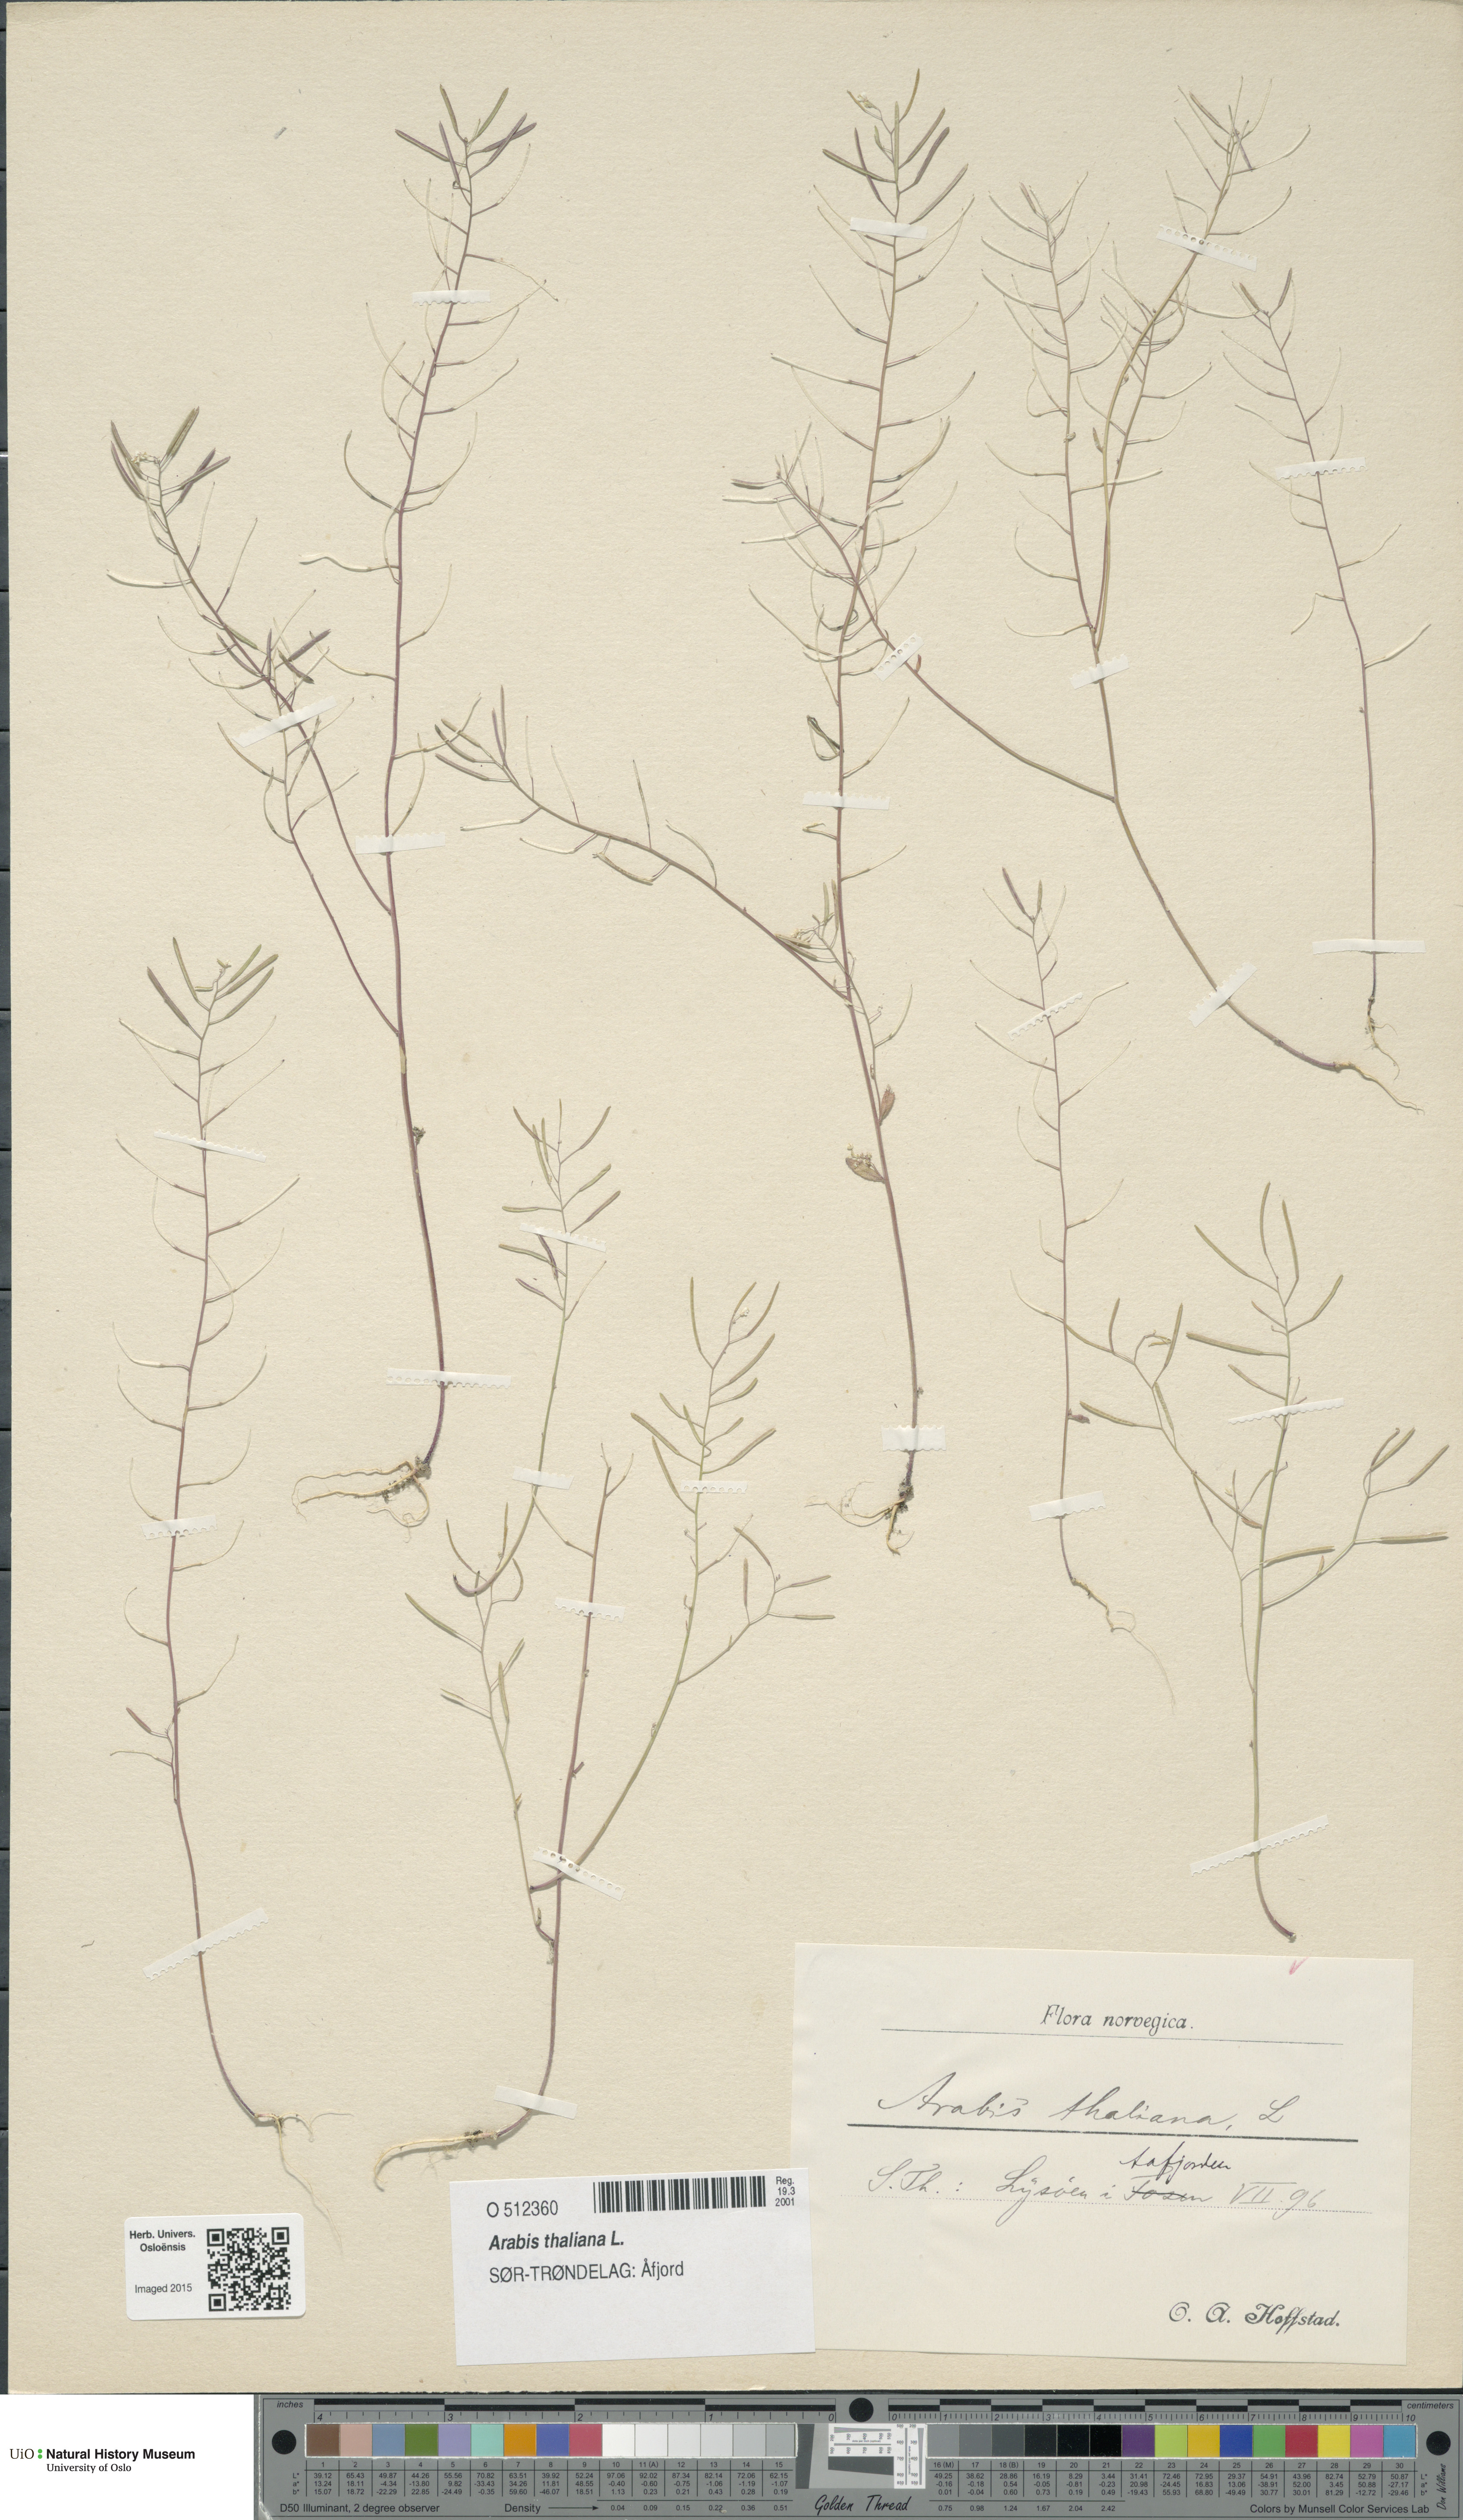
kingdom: Plantae
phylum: Tracheophyta
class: Magnoliopsida
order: Brassicales
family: Brassicaceae
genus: Arabidopsis
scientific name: Arabidopsis thaliana
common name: Thale cress
